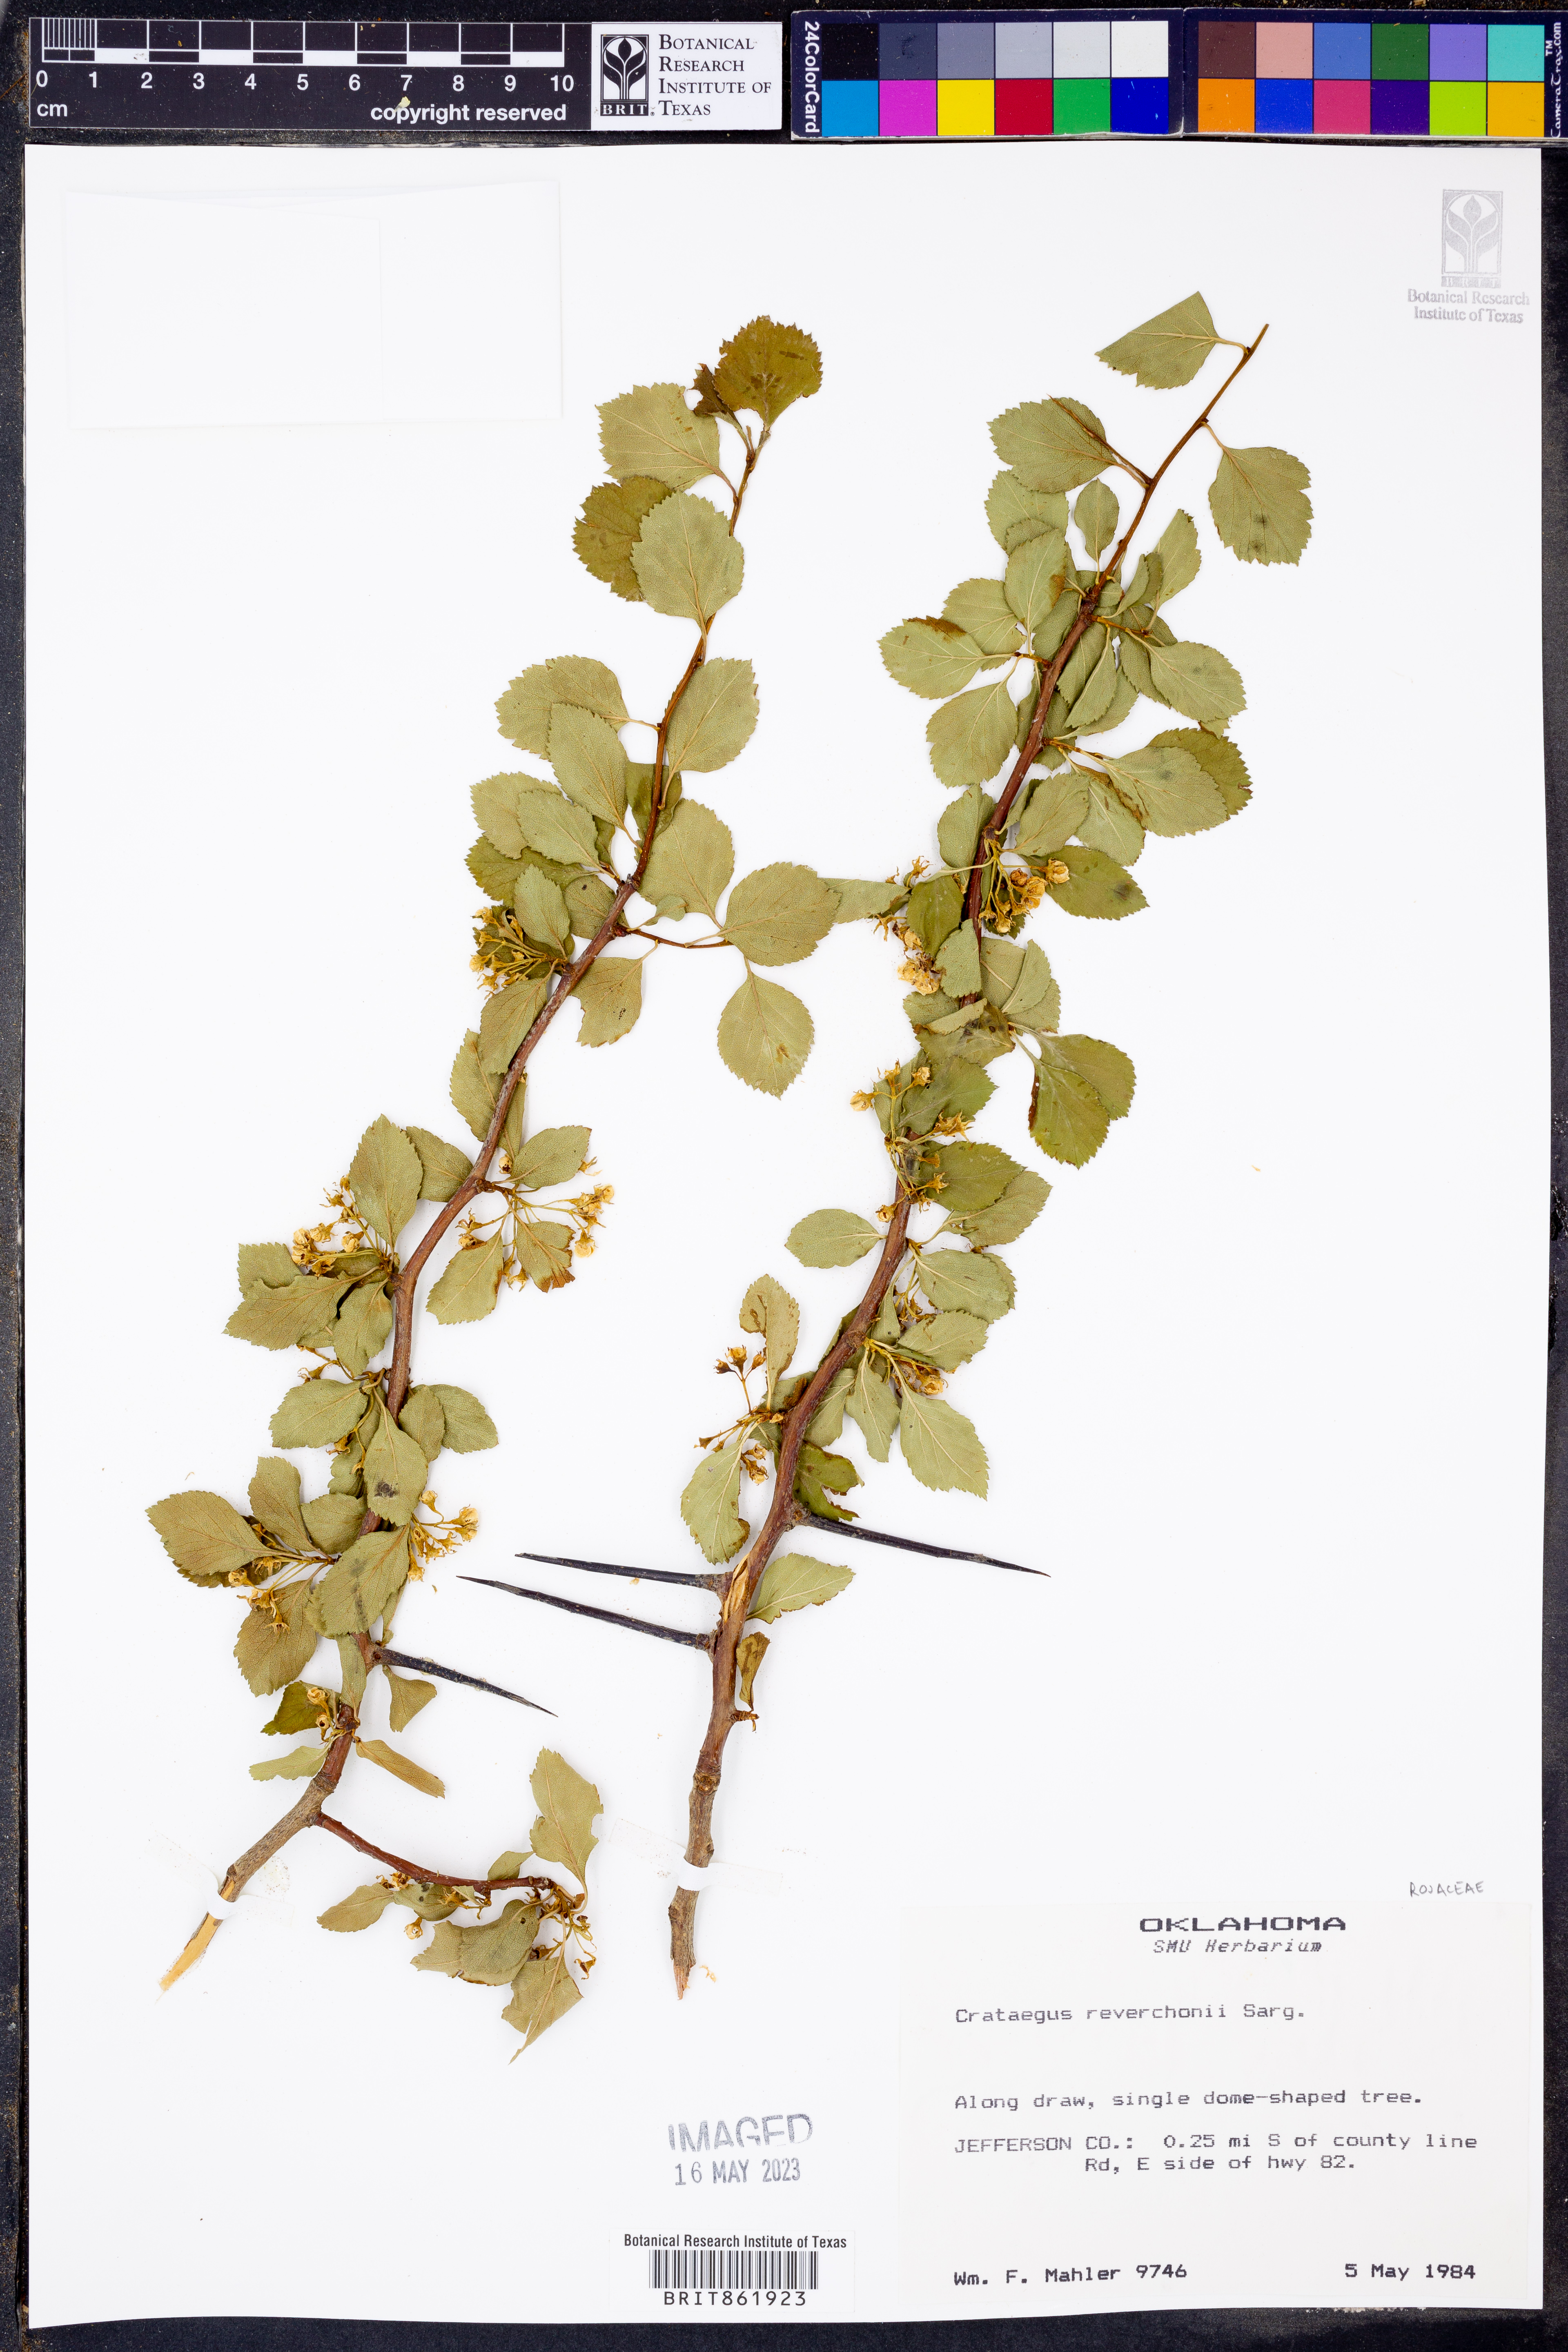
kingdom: Plantae
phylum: Tracheophyta
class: Magnoliopsida
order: Rosales
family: Rosaceae
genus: Crataegus
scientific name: Crataegus reverchonii
